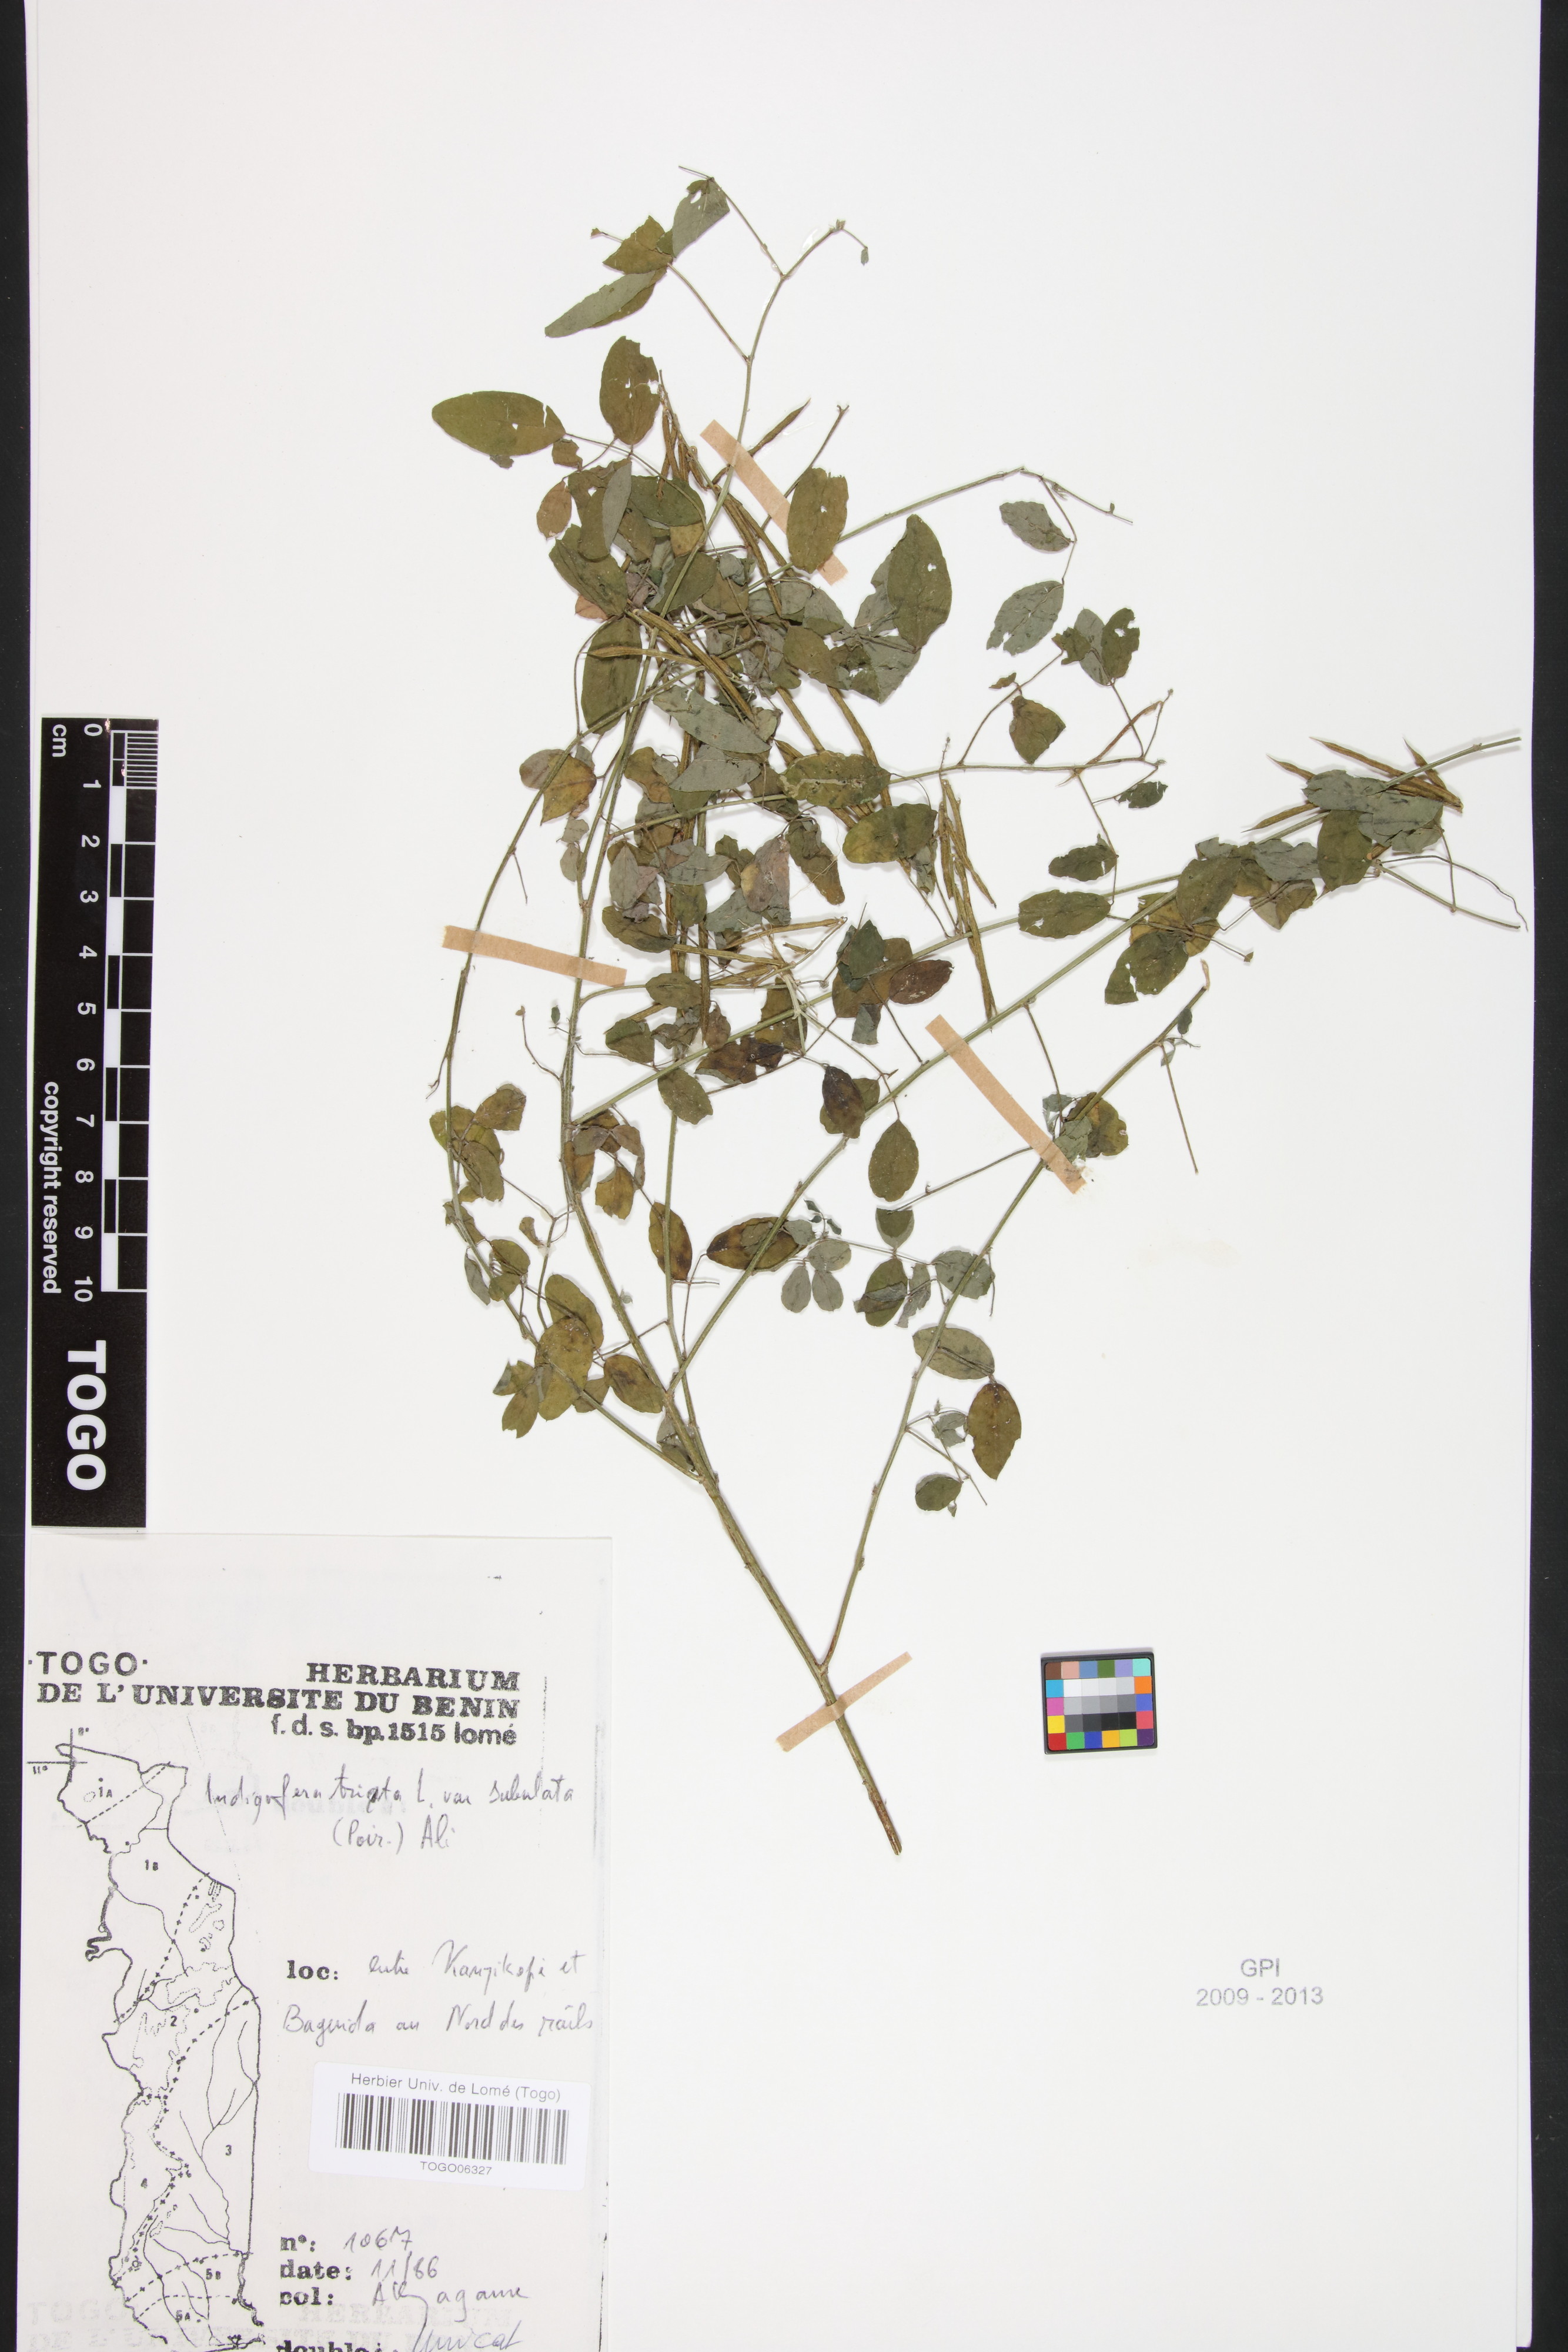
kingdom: Plantae
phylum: Tracheophyta
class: Magnoliopsida
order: Fabales
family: Fabaceae
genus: Indigofera
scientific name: Indigofera subulata
